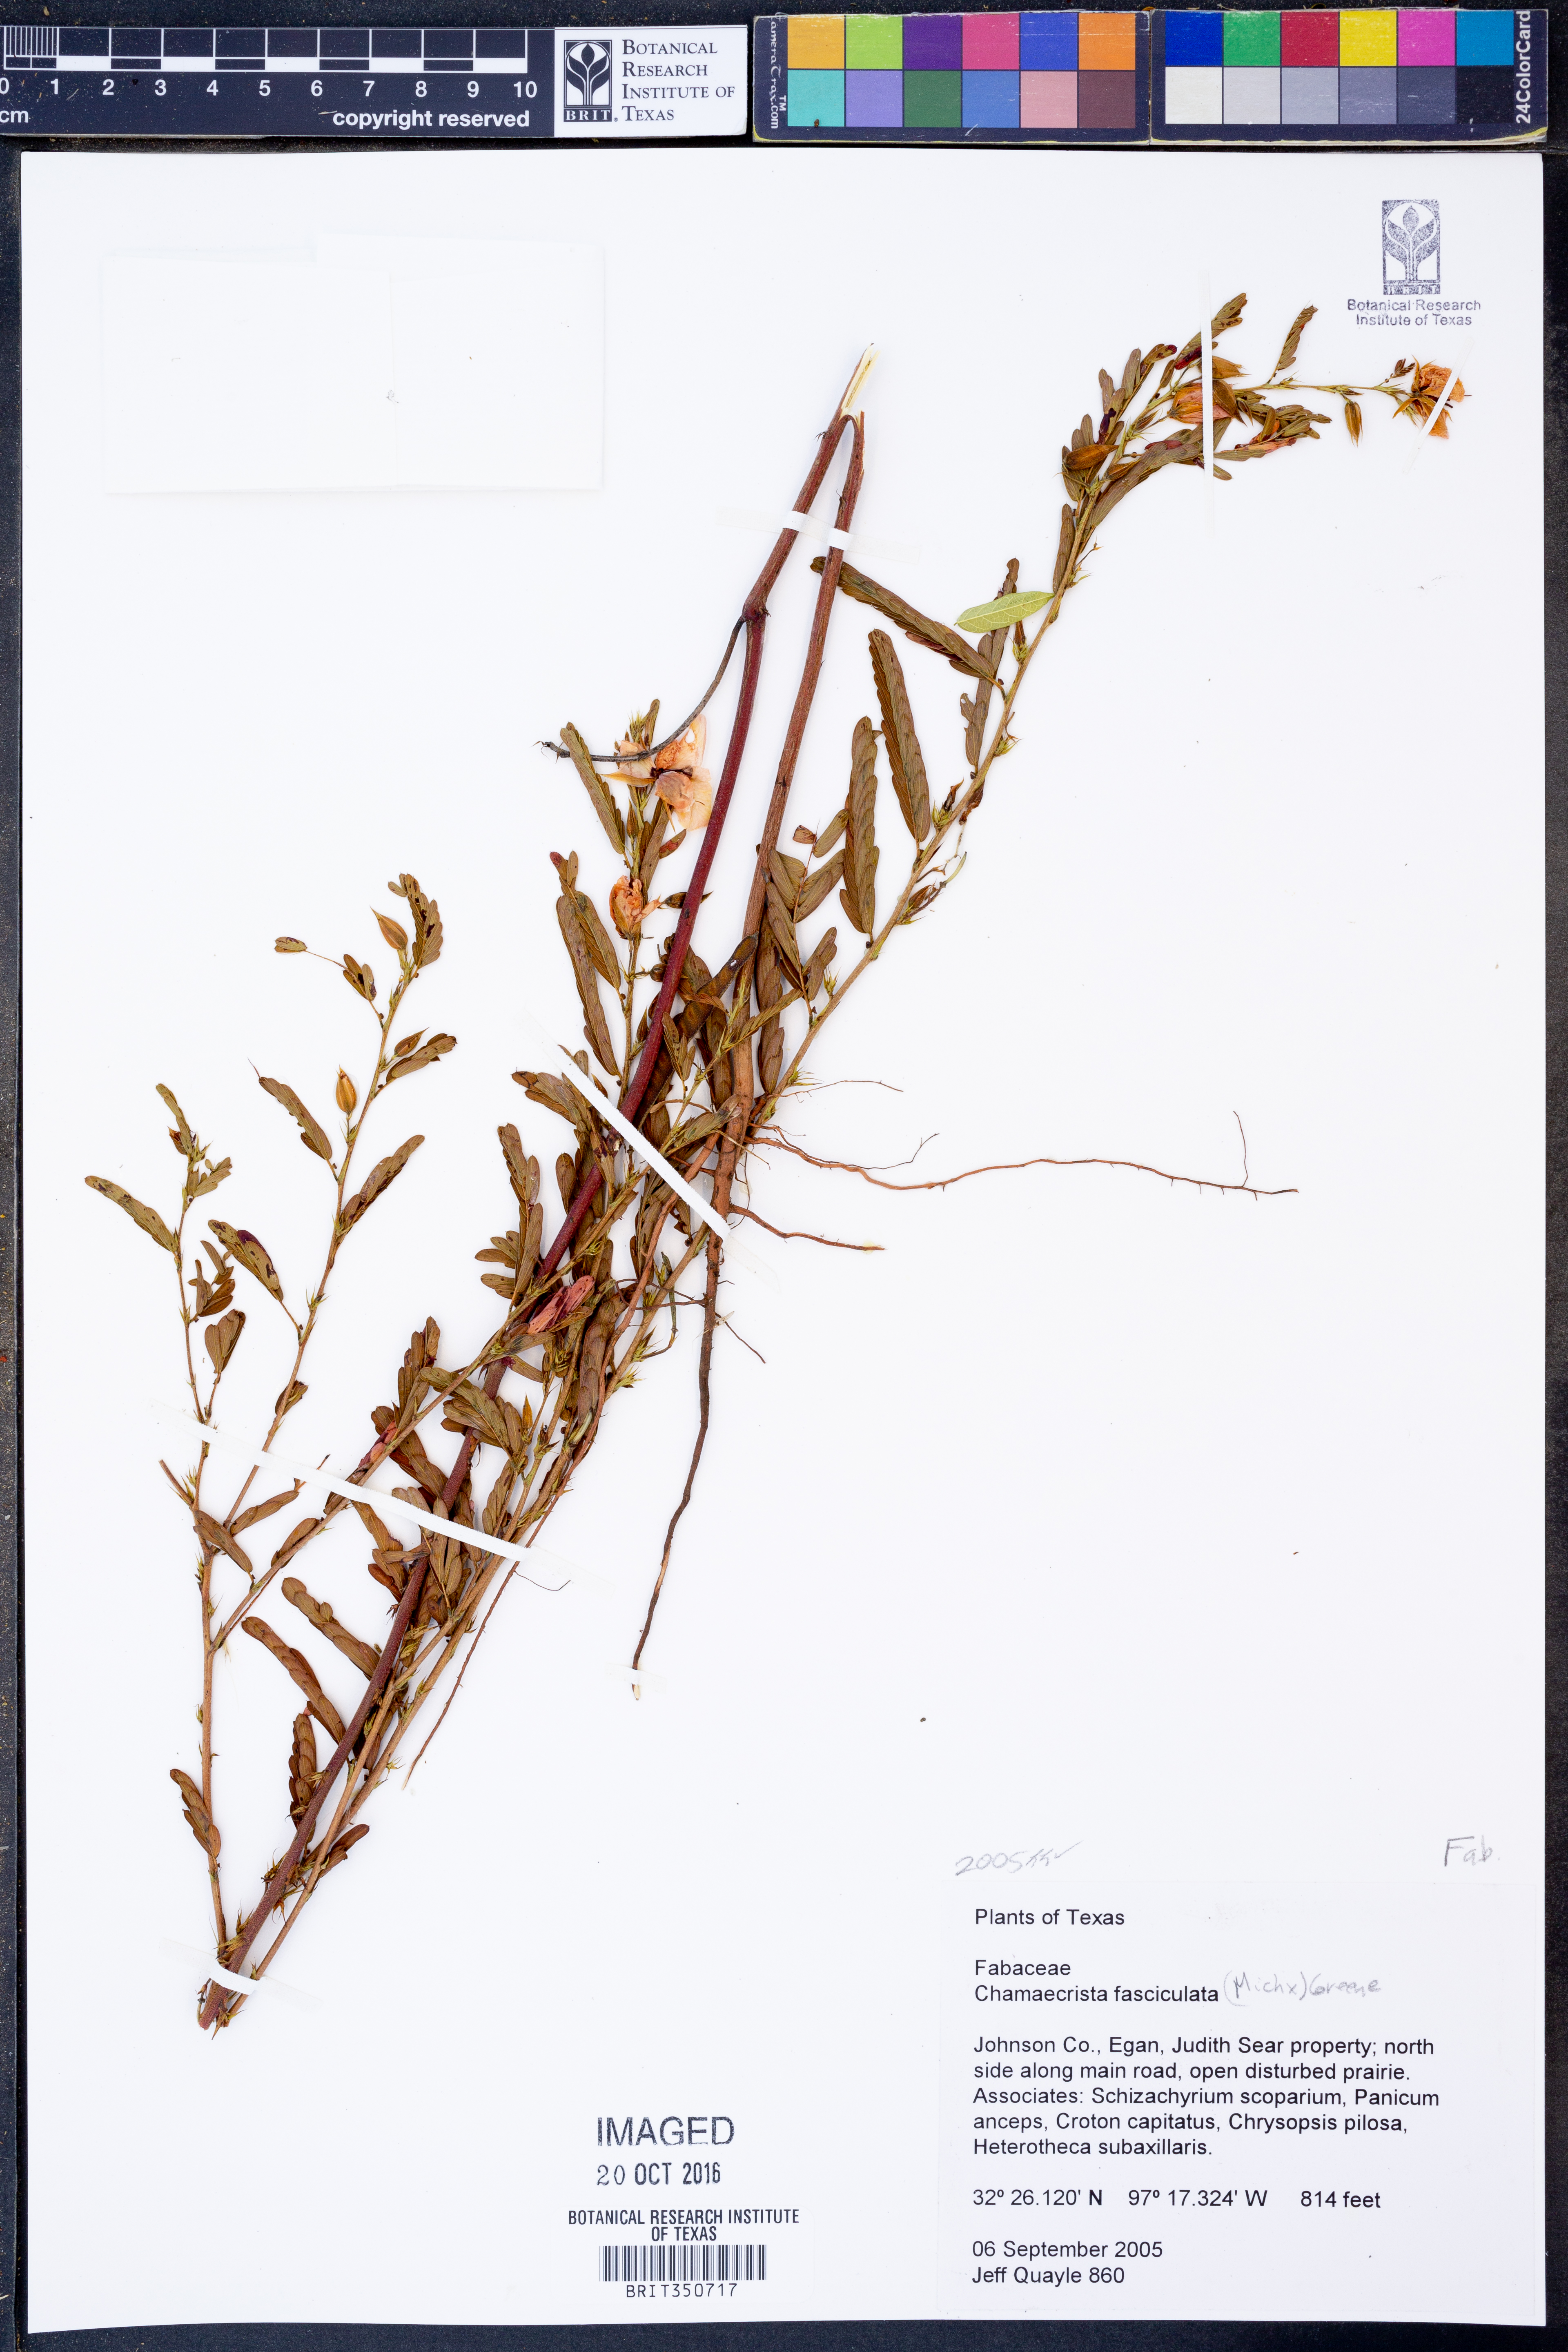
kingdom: Plantae
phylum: Tracheophyta
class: Magnoliopsida
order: Fabales
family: Fabaceae
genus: Chamaecrista
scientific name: Chamaecrista fasciculata
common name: Golden cassia
